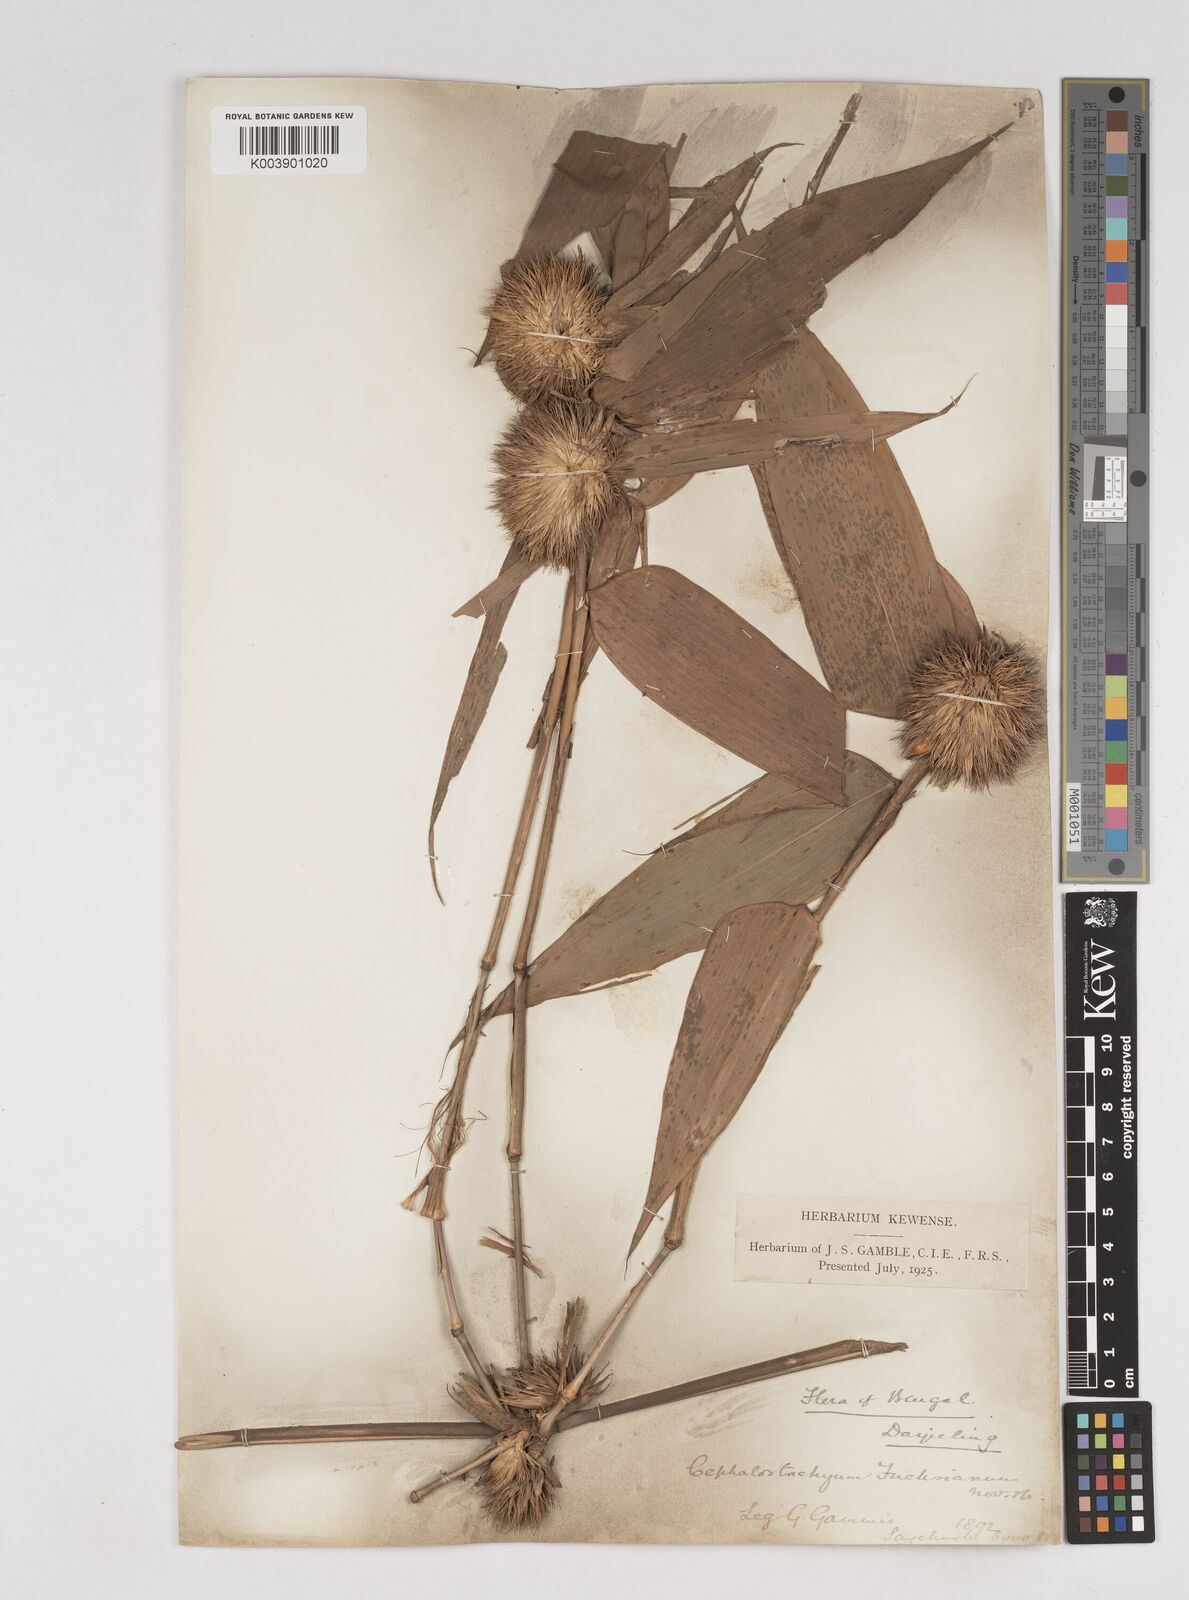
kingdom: Plantae
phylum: Tracheophyta
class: Liliopsida
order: Poales
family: Poaceae
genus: Cephalostachyum
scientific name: Cephalostachyum latifolium
